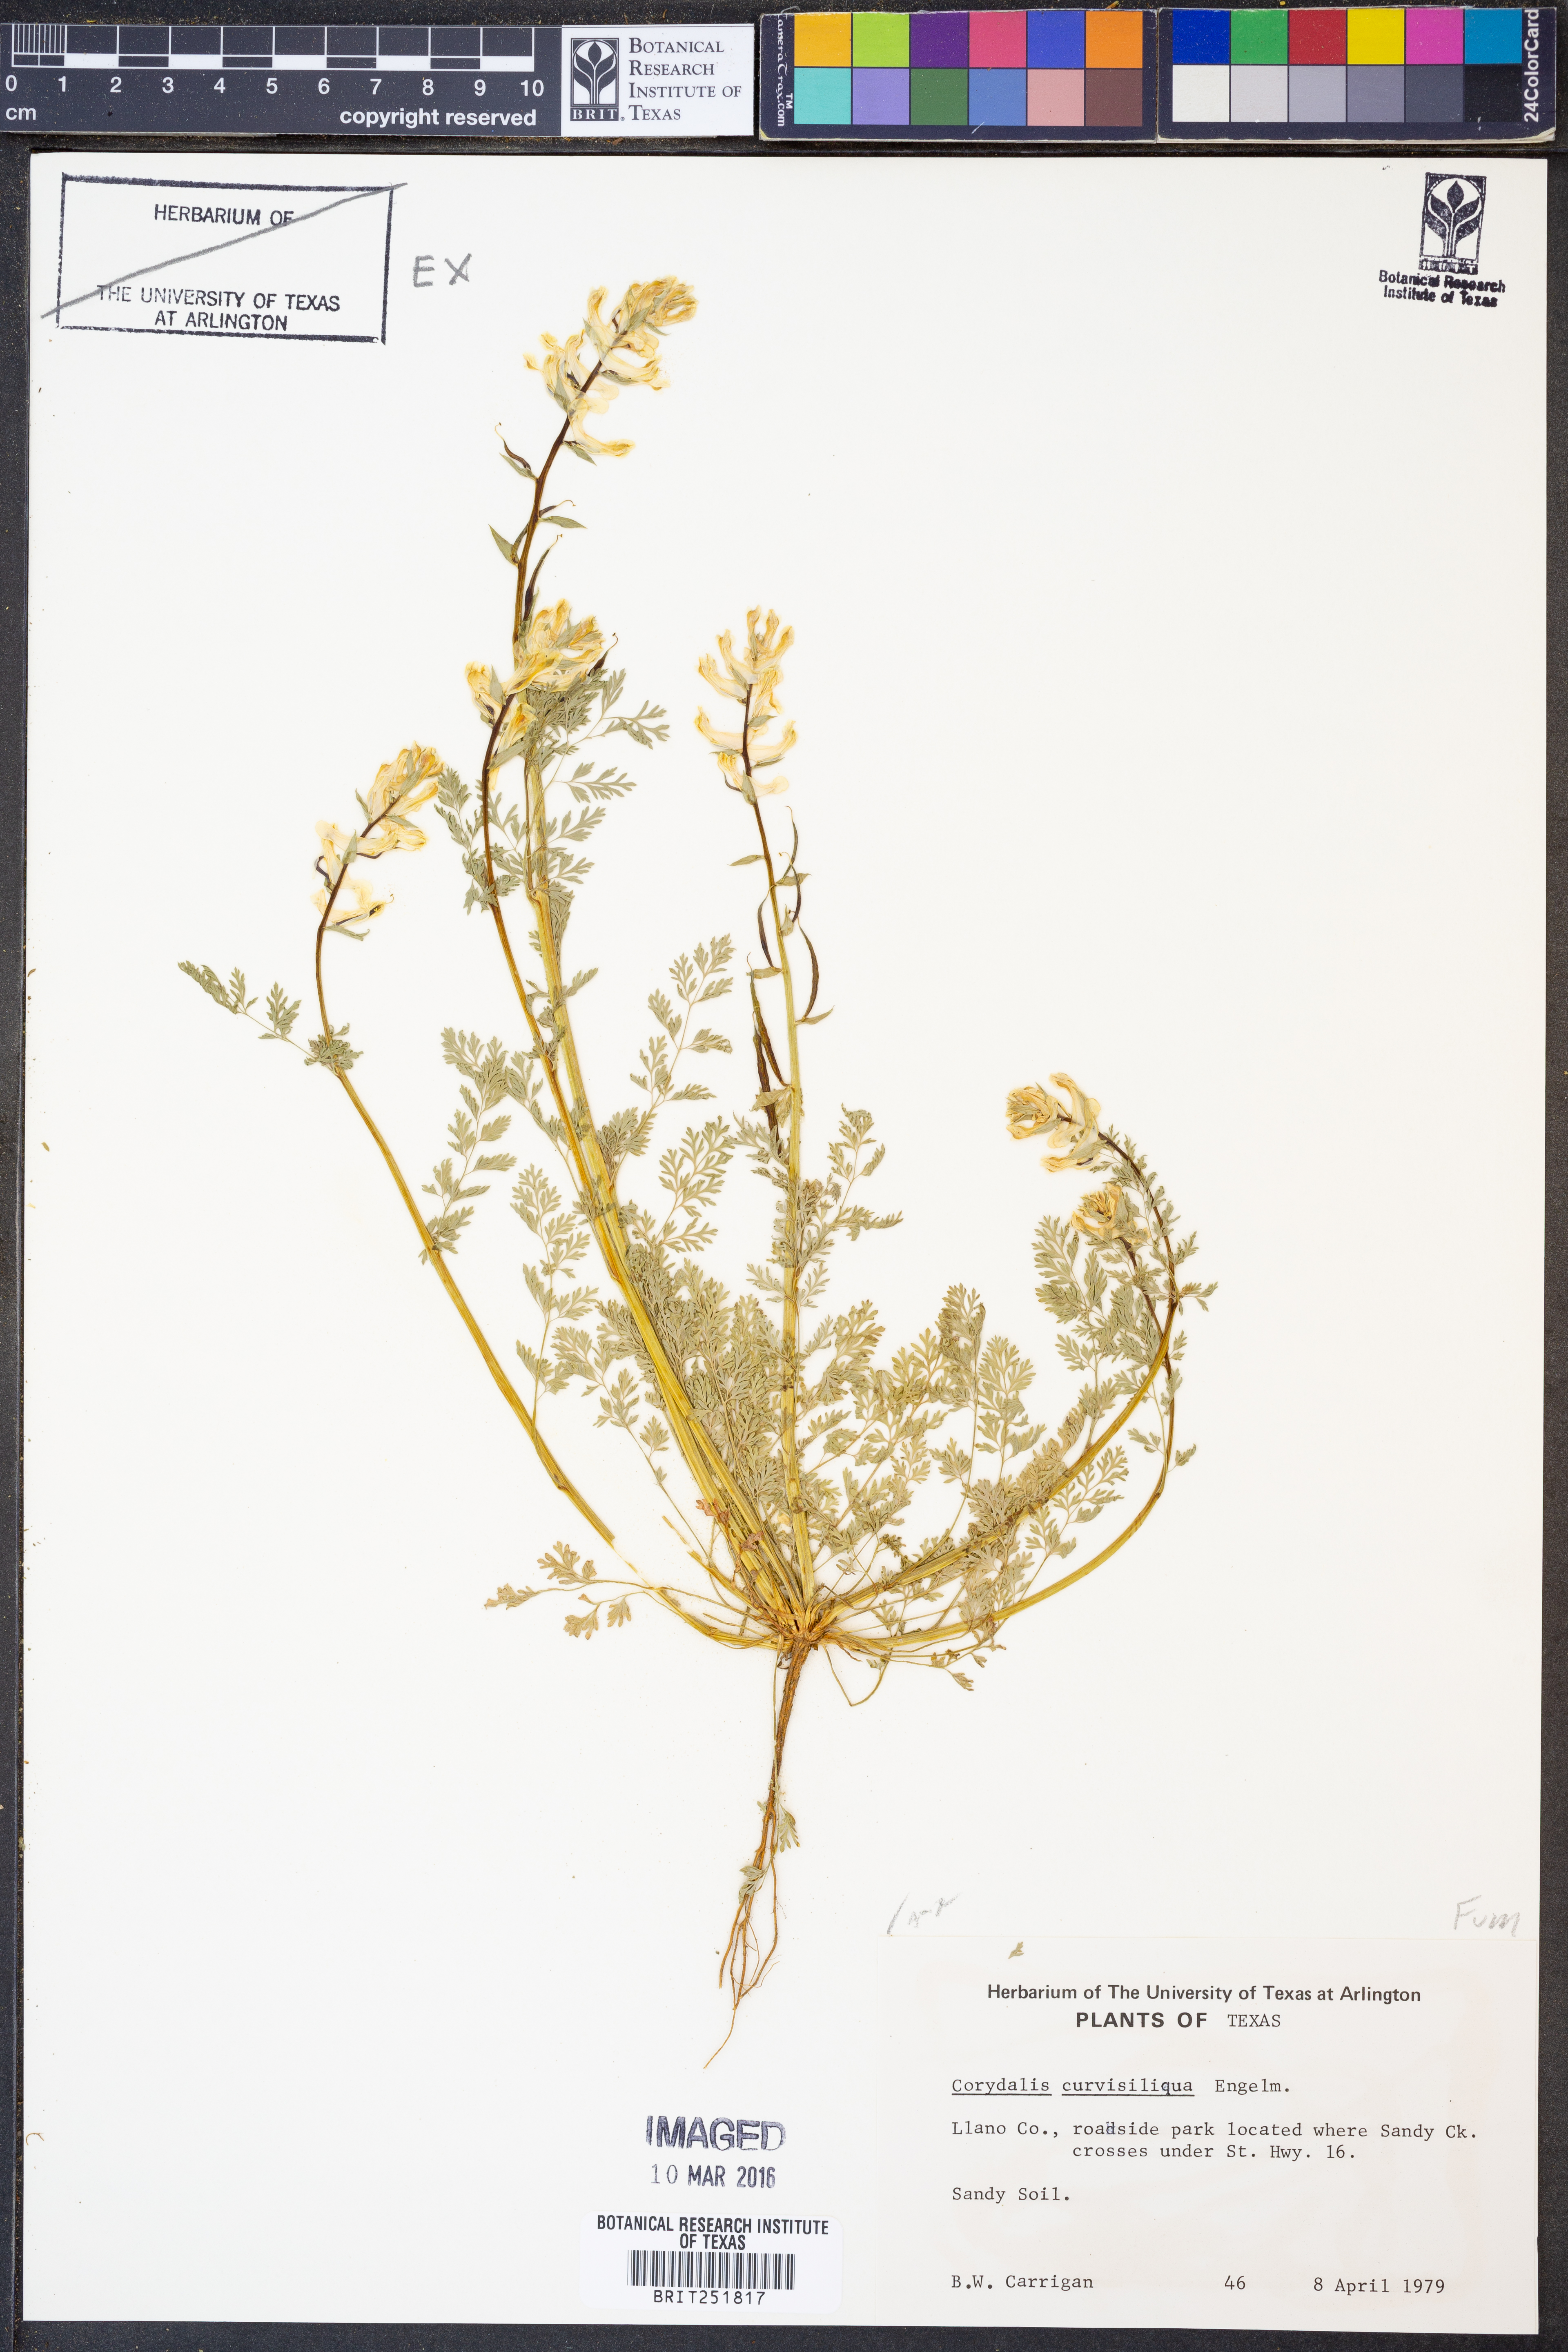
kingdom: Plantae
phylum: Tracheophyta
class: Magnoliopsida
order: Ranunculales
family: Papaveraceae
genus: Corydalis
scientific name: Corydalis curvisiliqua
